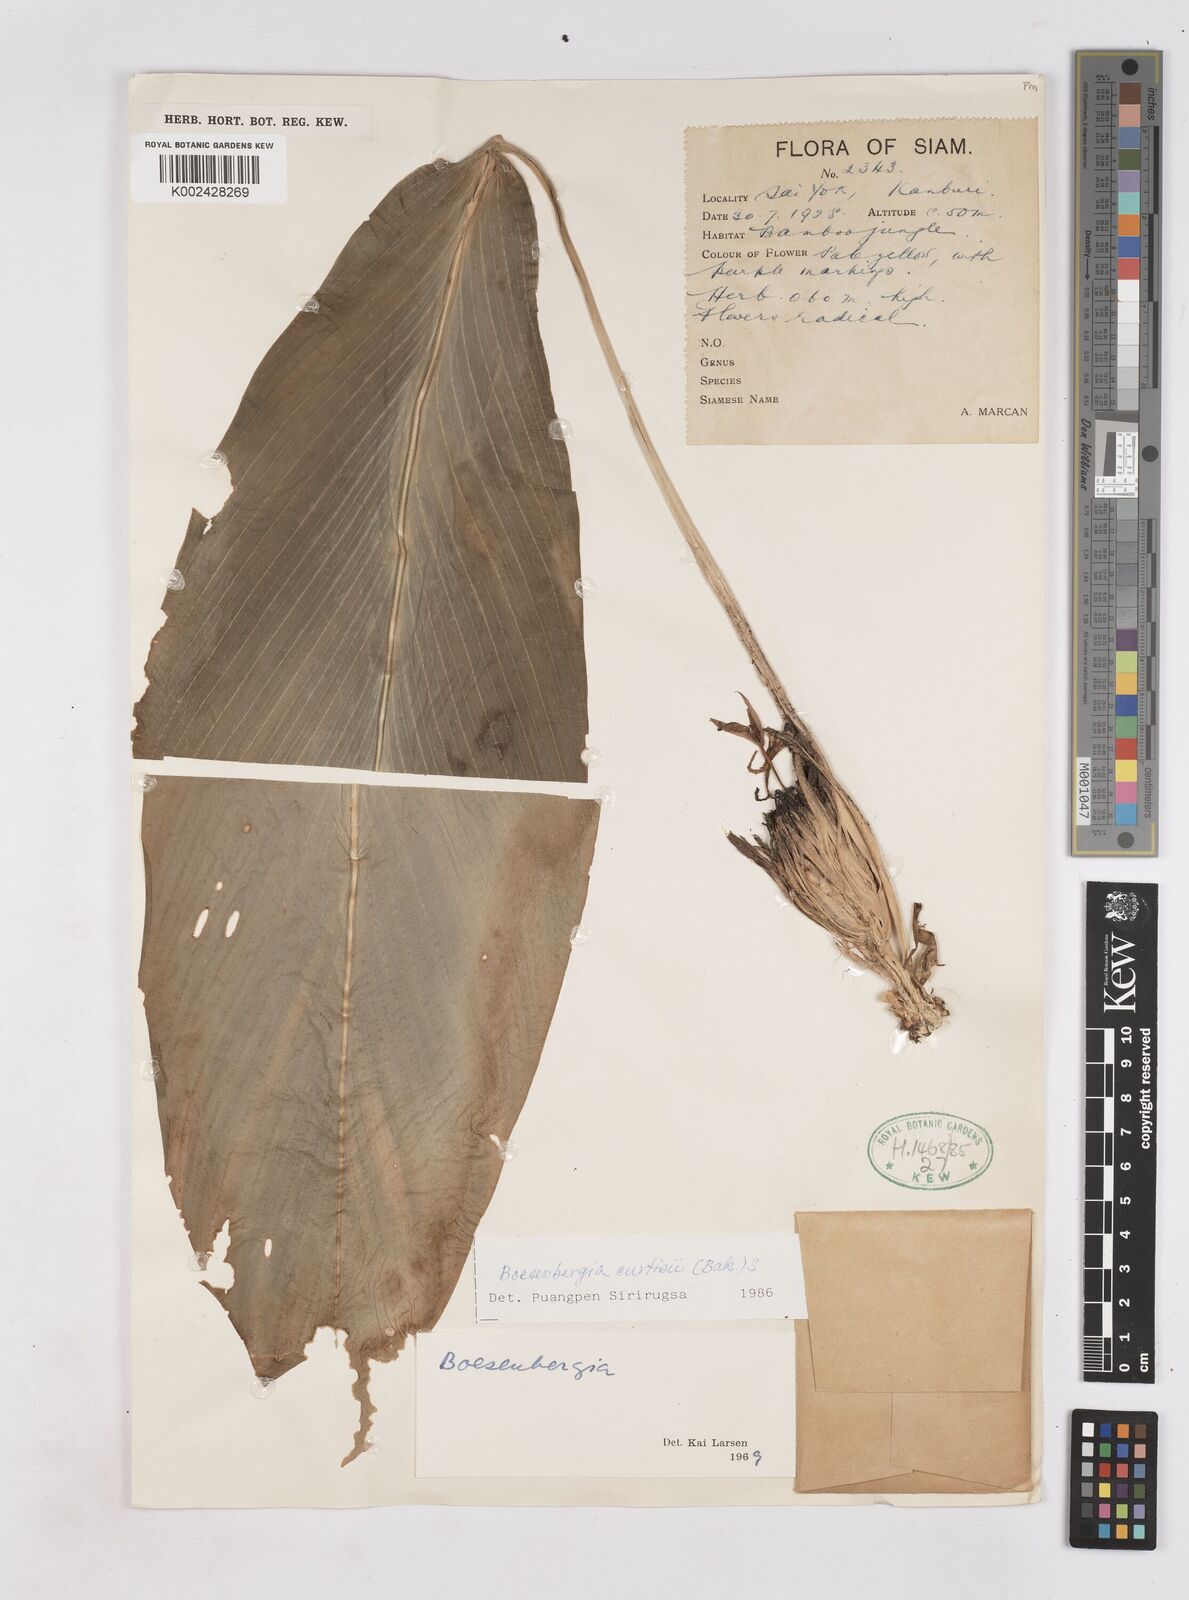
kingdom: Plantae
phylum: Tracheophyta
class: Liliopsida
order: Zingiberales
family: Zingiberaceae
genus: Boesenbergia
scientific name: Boesenbergia curtisii
